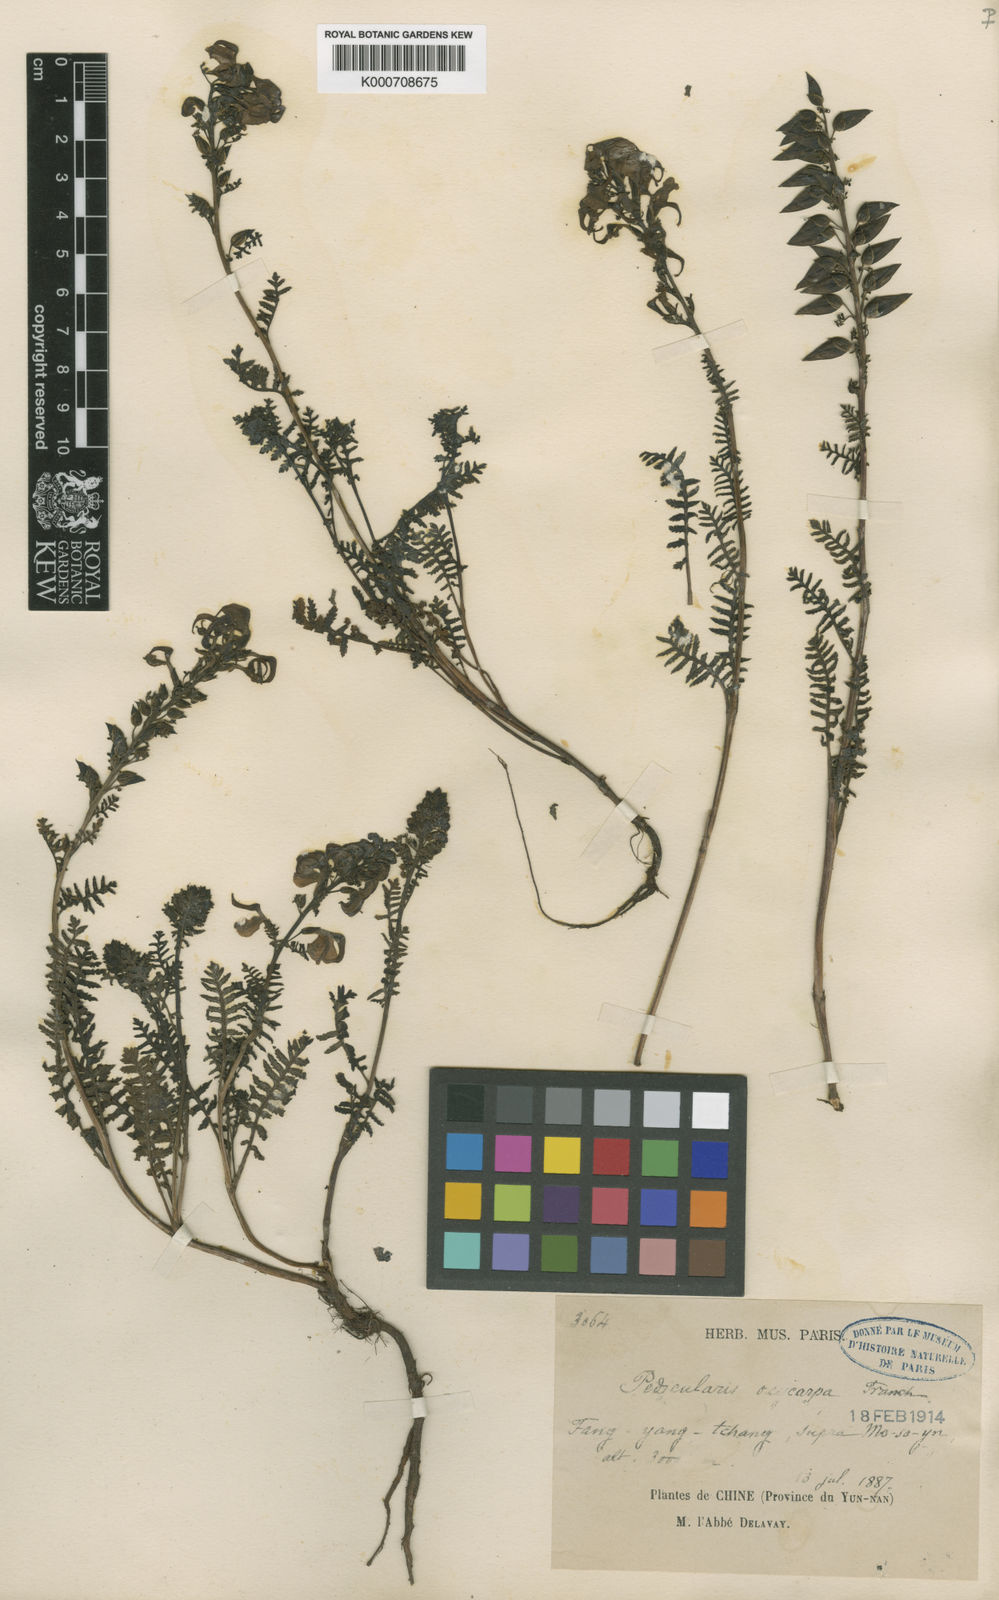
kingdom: Plantae
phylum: Tracheophyta
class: Magnoliopsida
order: Lamiales
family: Orobanchaceae
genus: Pedicularis
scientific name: Pedicularis oxycarpa
